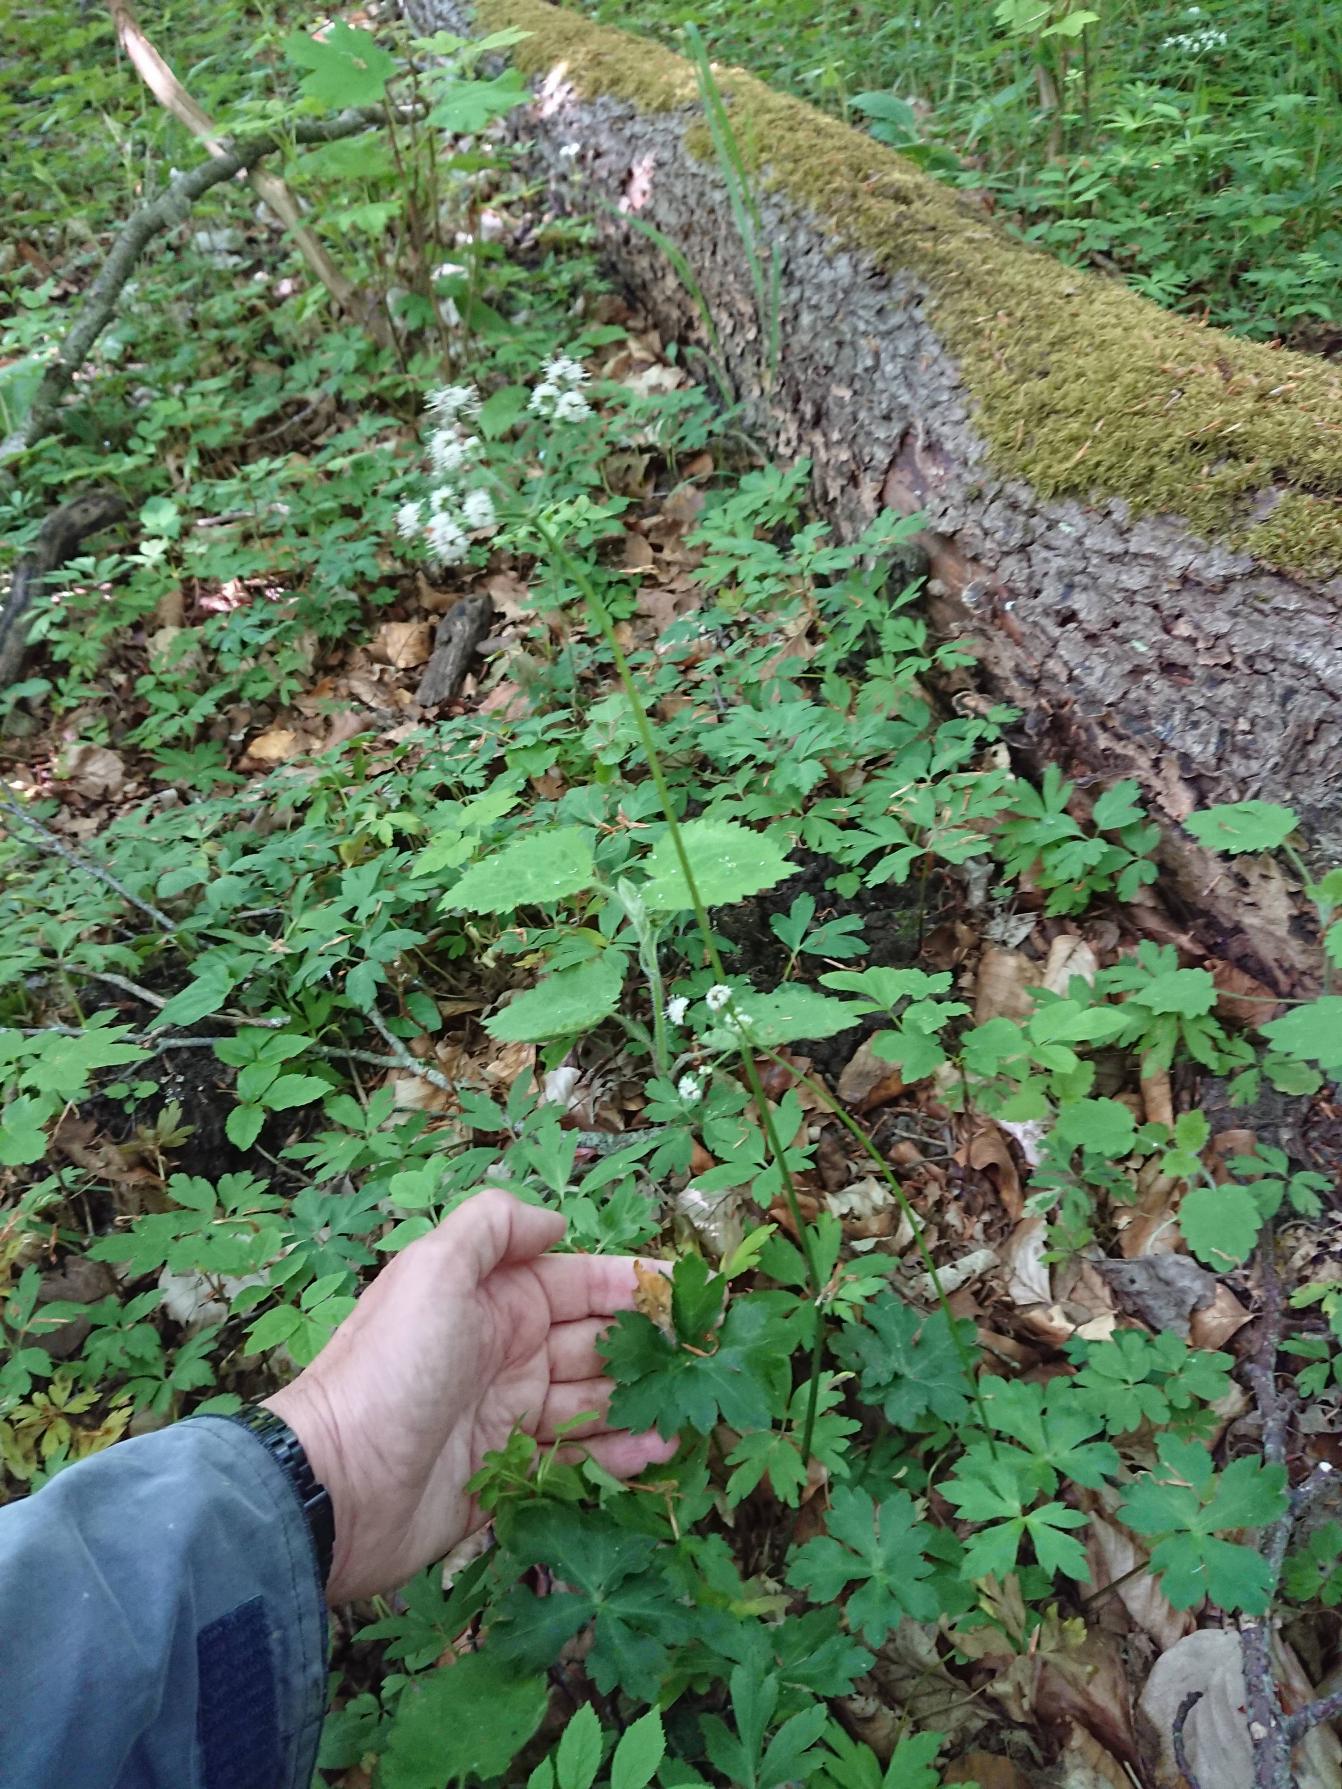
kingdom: Plantae
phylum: Tracheophyta
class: Magnoliopsida
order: Apiales
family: Apiaceae
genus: Sanicula
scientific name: Sanicula europaea
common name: Sanikel
